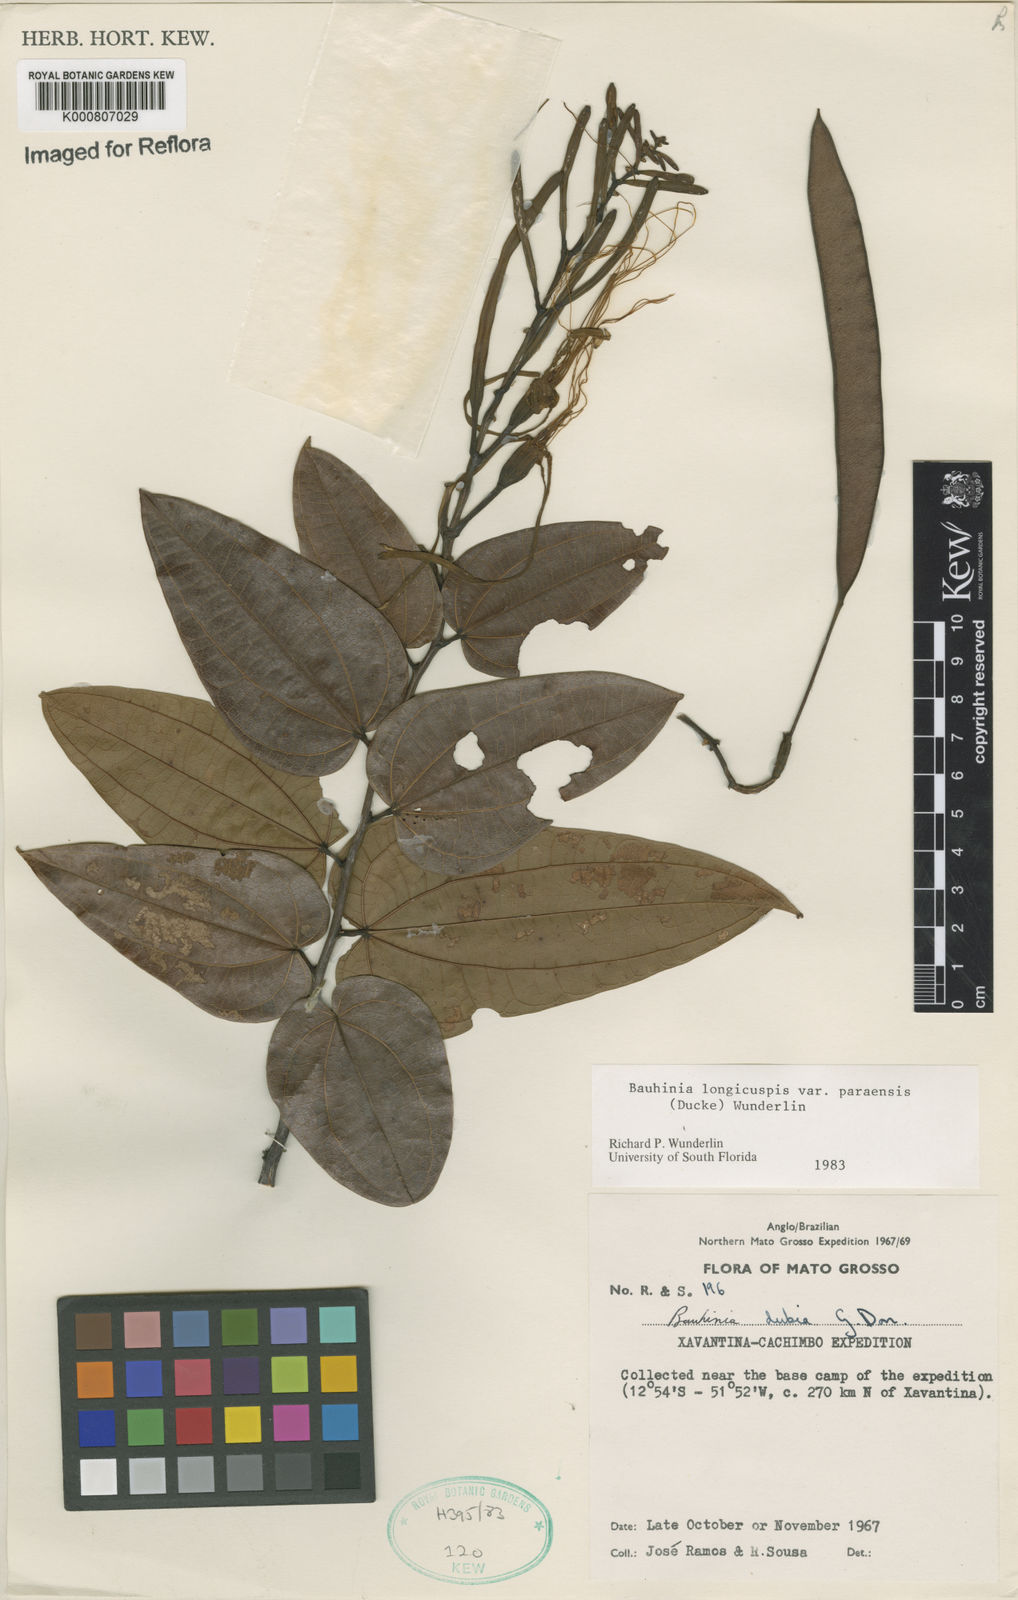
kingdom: Plantae
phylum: Tracheophyta
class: Magnoliopsida
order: Fabales
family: Fabaceae
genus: Bauhinia
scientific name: Bauhinia longicuspis
